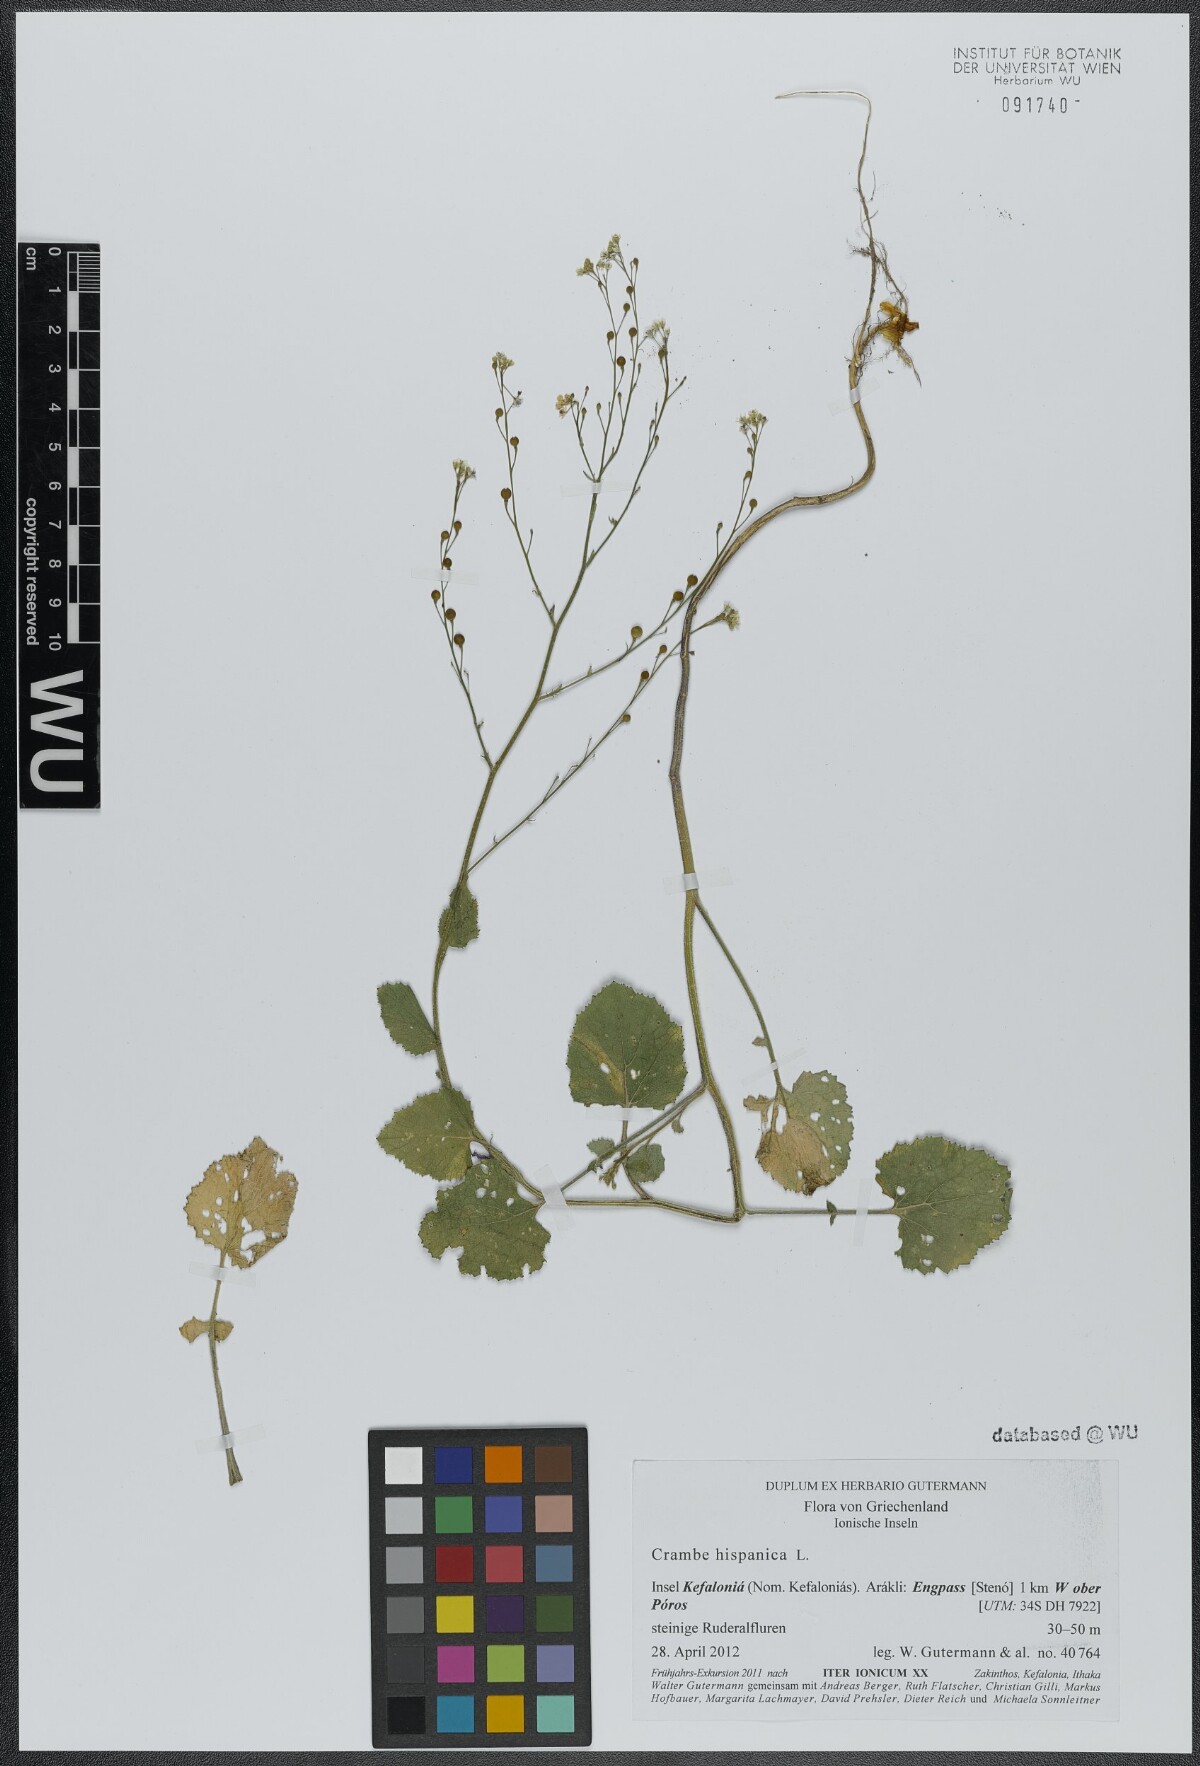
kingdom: Plantae
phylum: Tracheophyta
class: Magnoliopsida
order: Brassicales
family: Brassicaceae
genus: Crambe
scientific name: Crambe hispanica
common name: Abyssinian mustard
